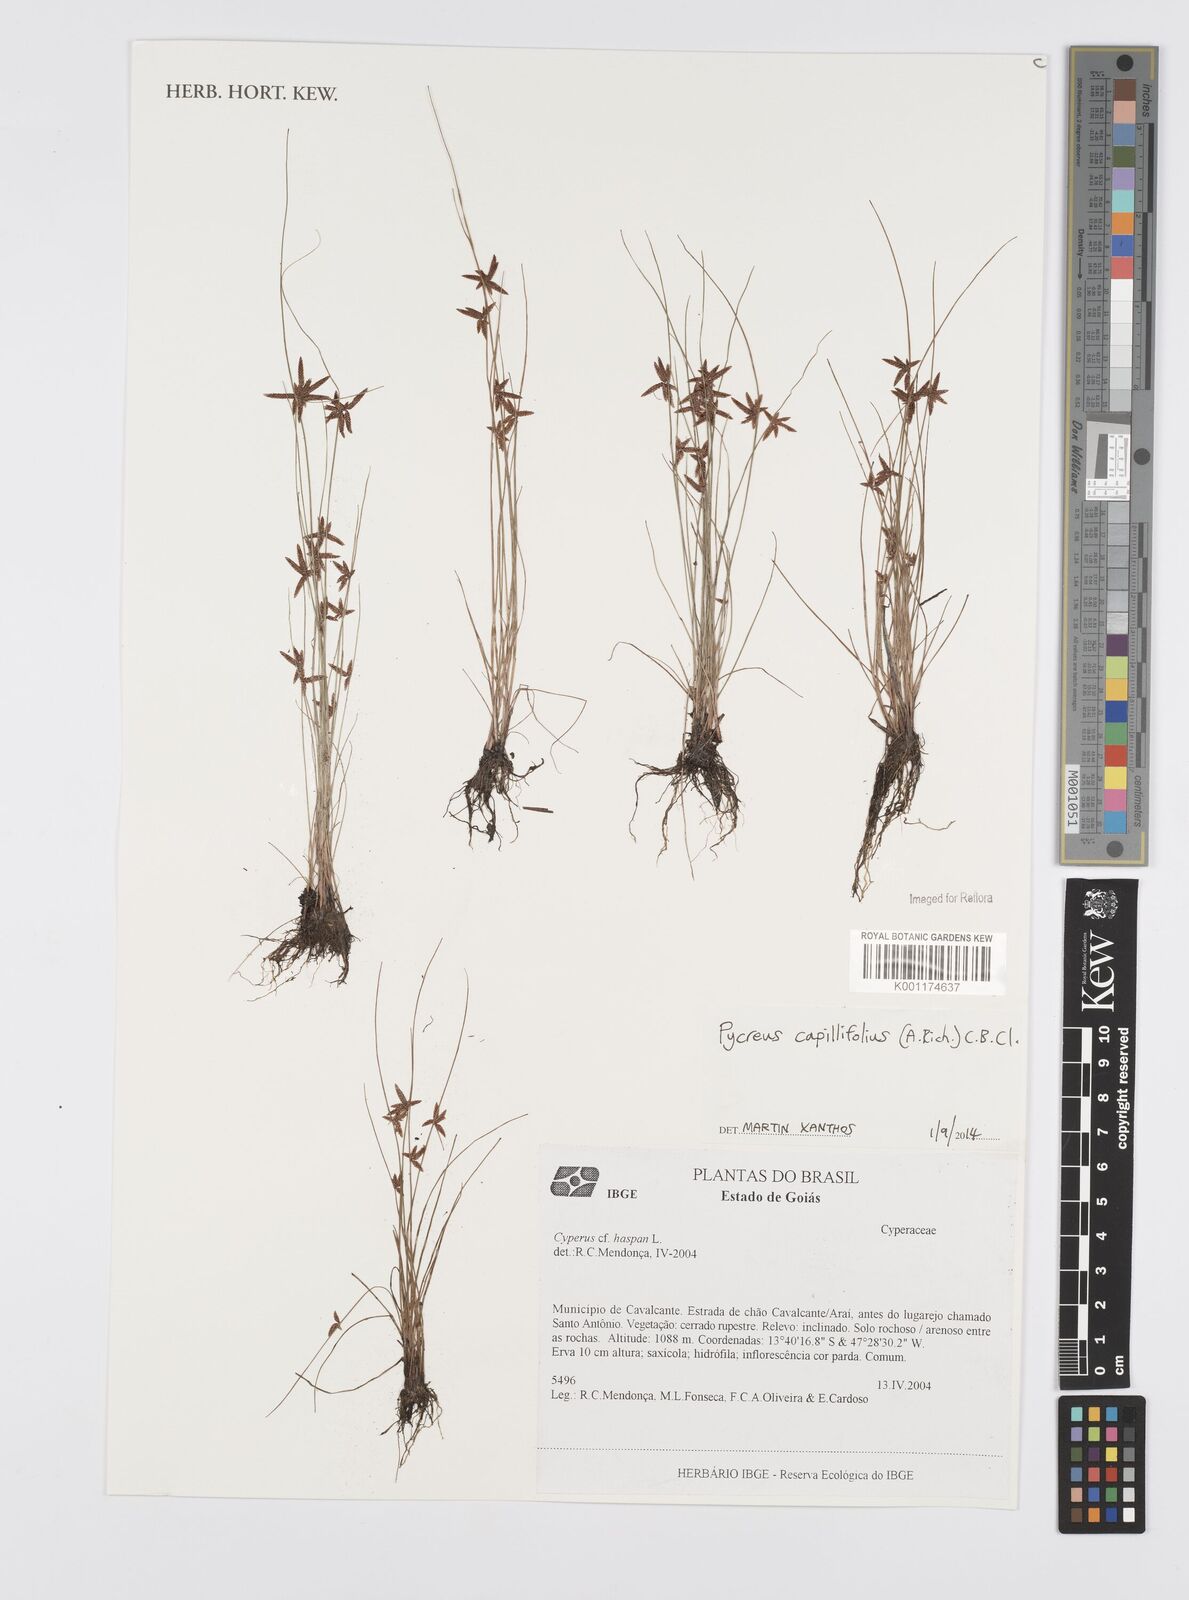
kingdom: Plantae
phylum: Tracheophyta
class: Liliopsida
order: Poales
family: Cyperaceae
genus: Cyperus
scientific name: Cyperus capillifolius
